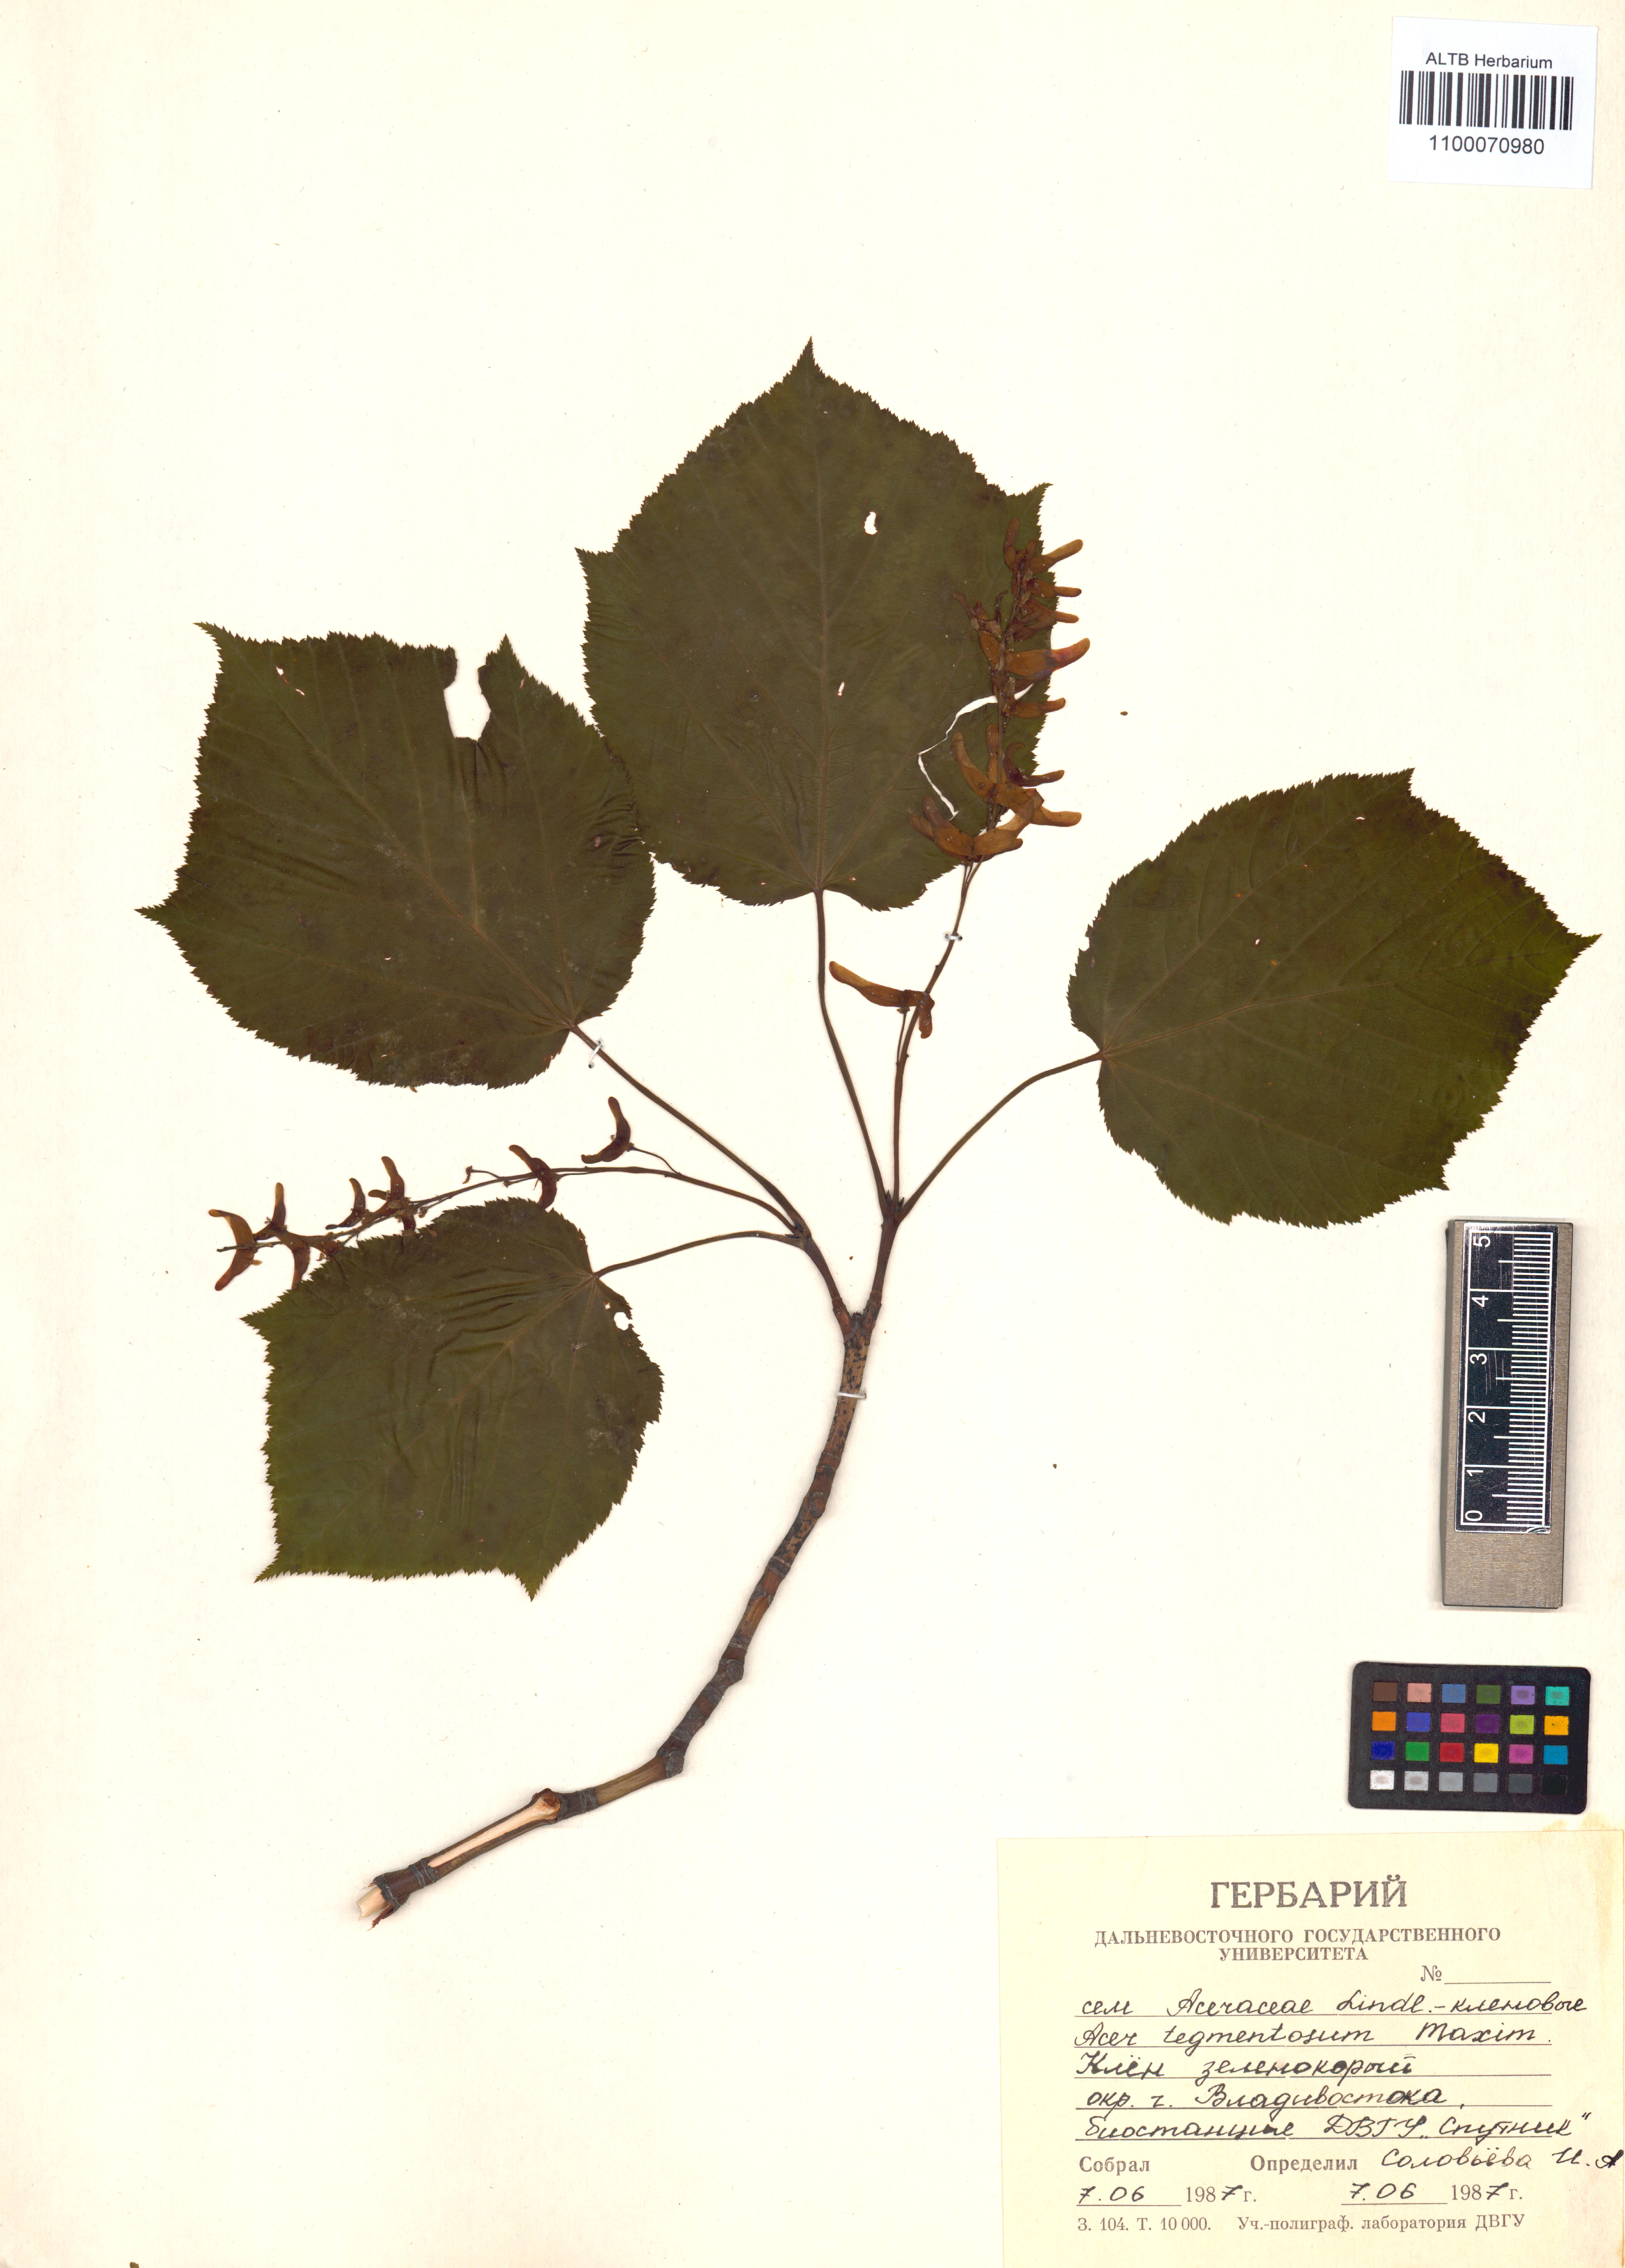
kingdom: Plantae
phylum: Tracheophyta
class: Magnoliopsida
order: Sapindales
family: Sapindaceae
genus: Acer
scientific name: Acer tegmentosum
